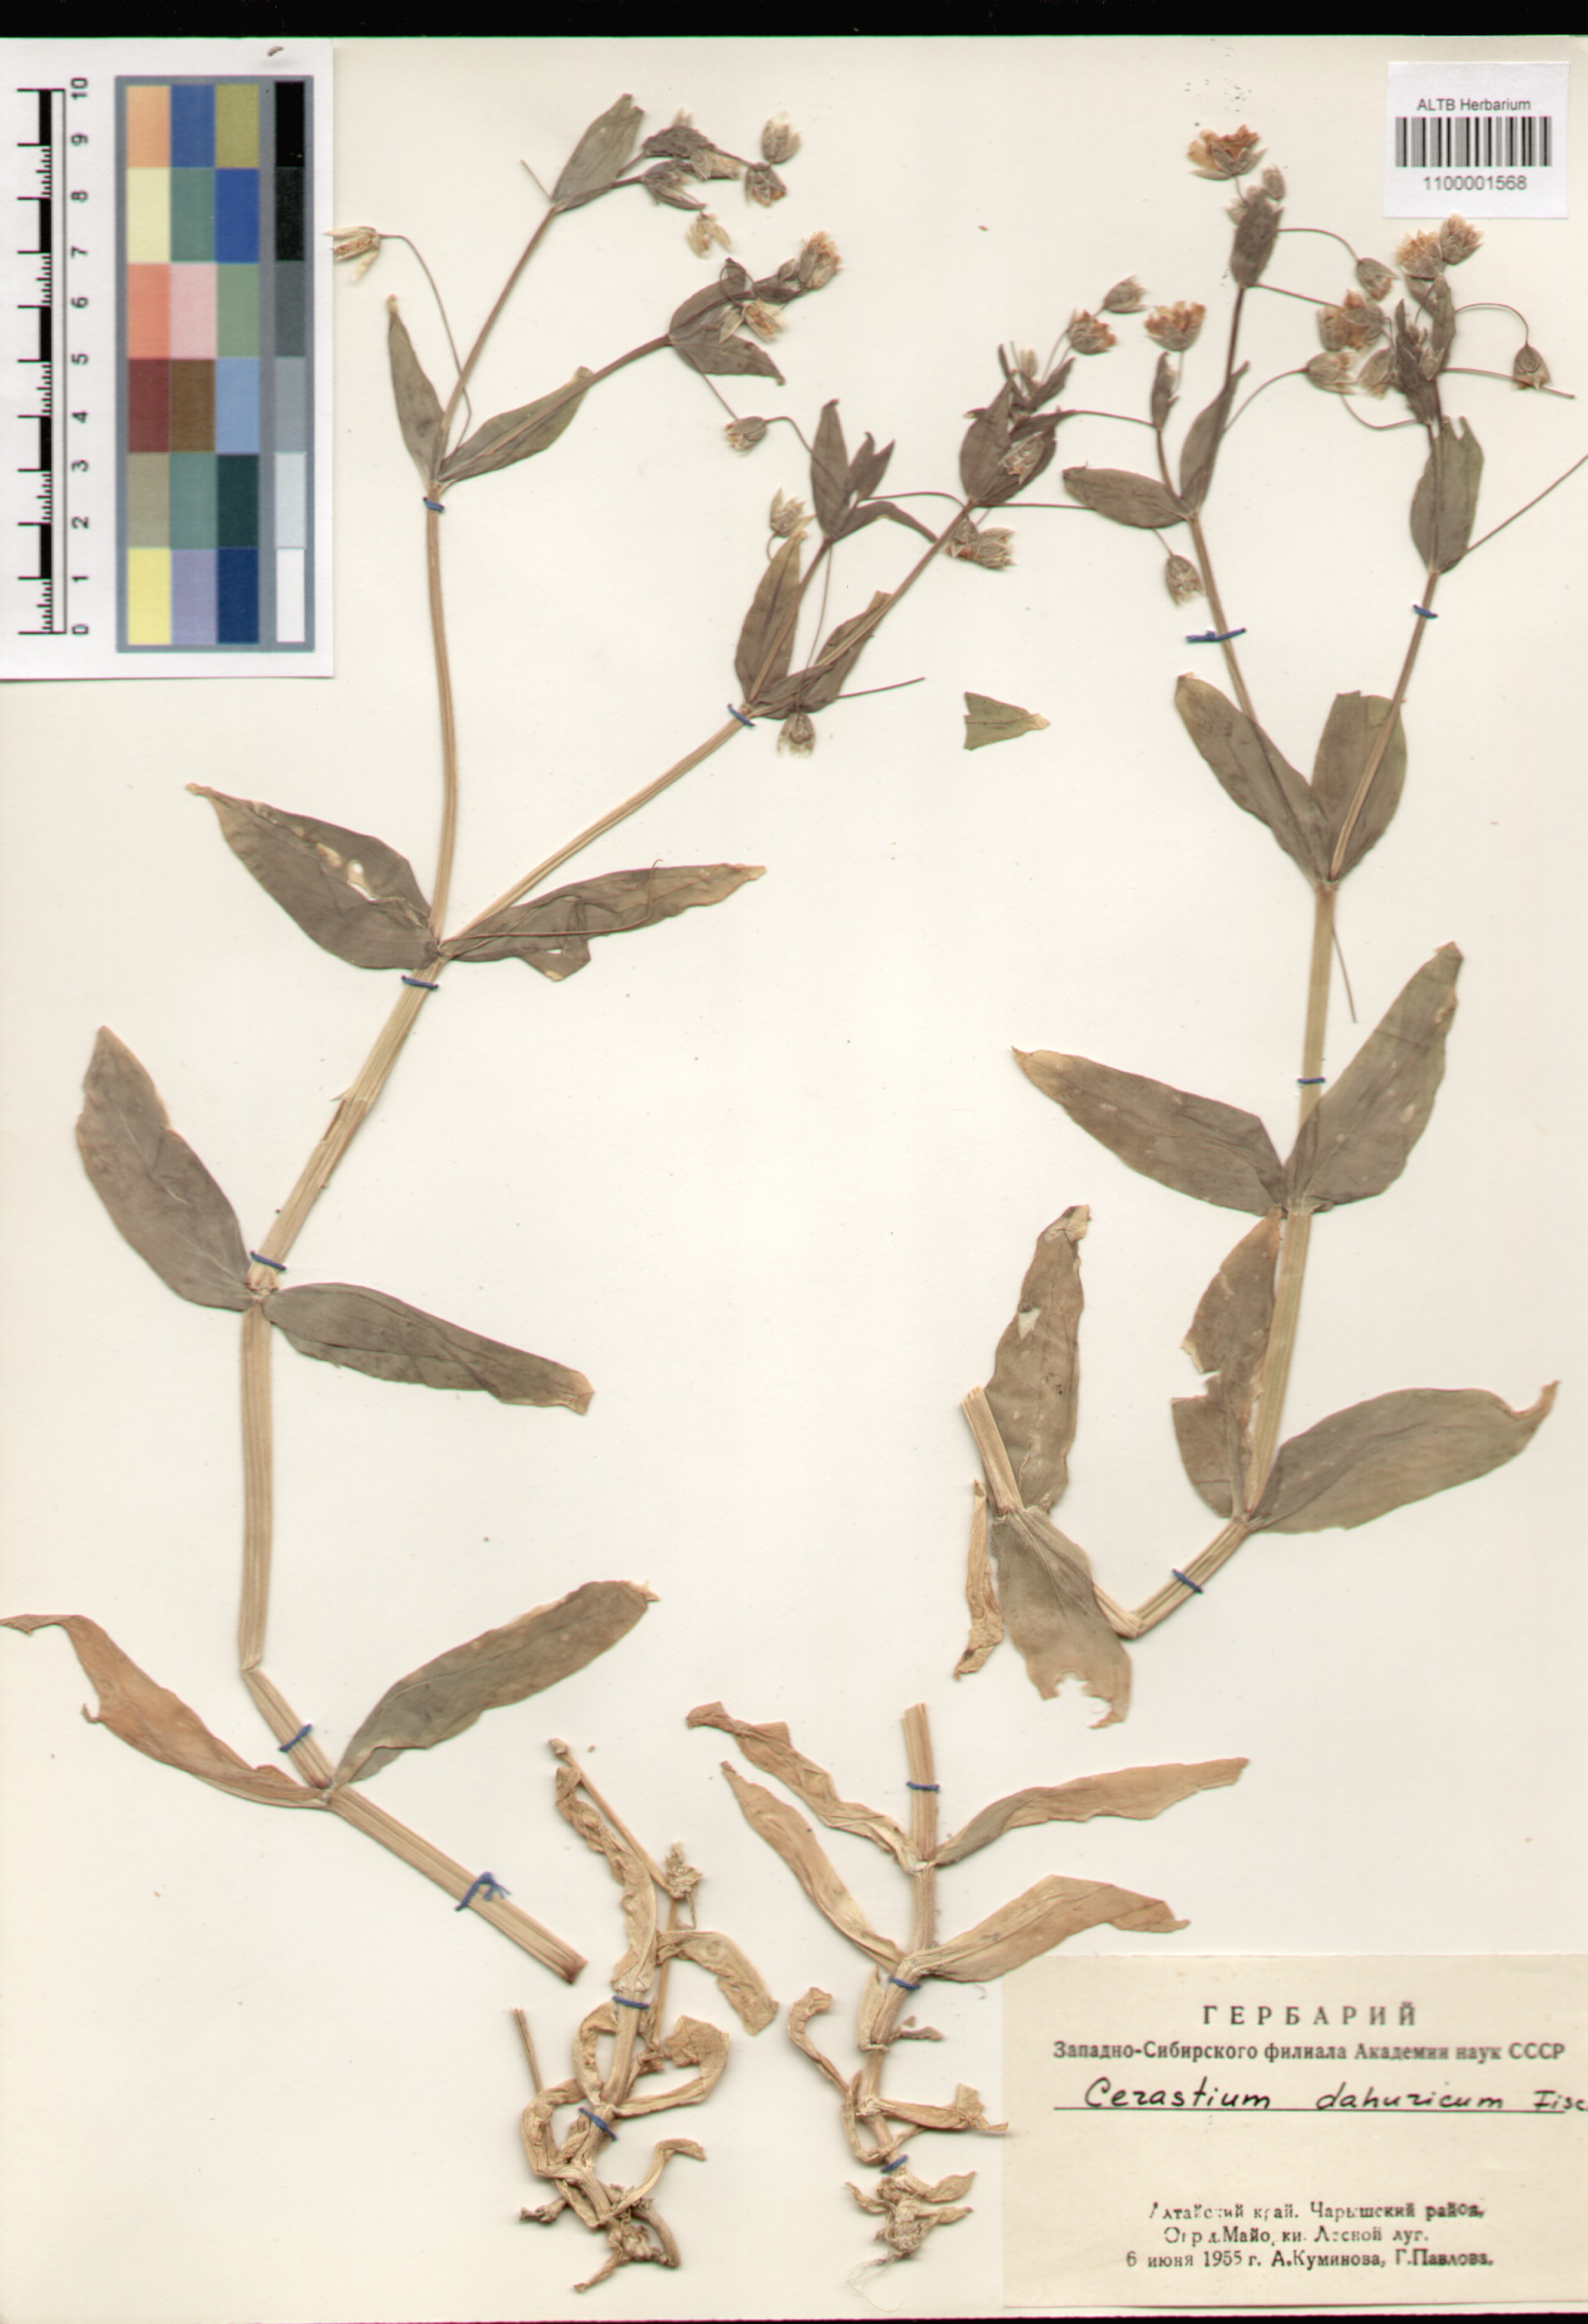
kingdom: Plantae
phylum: Tracheophyta
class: Magnoliopsida
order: Caryophyllales
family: Caryophyllaceae
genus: Dichodon
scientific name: Dichodon davuricum
